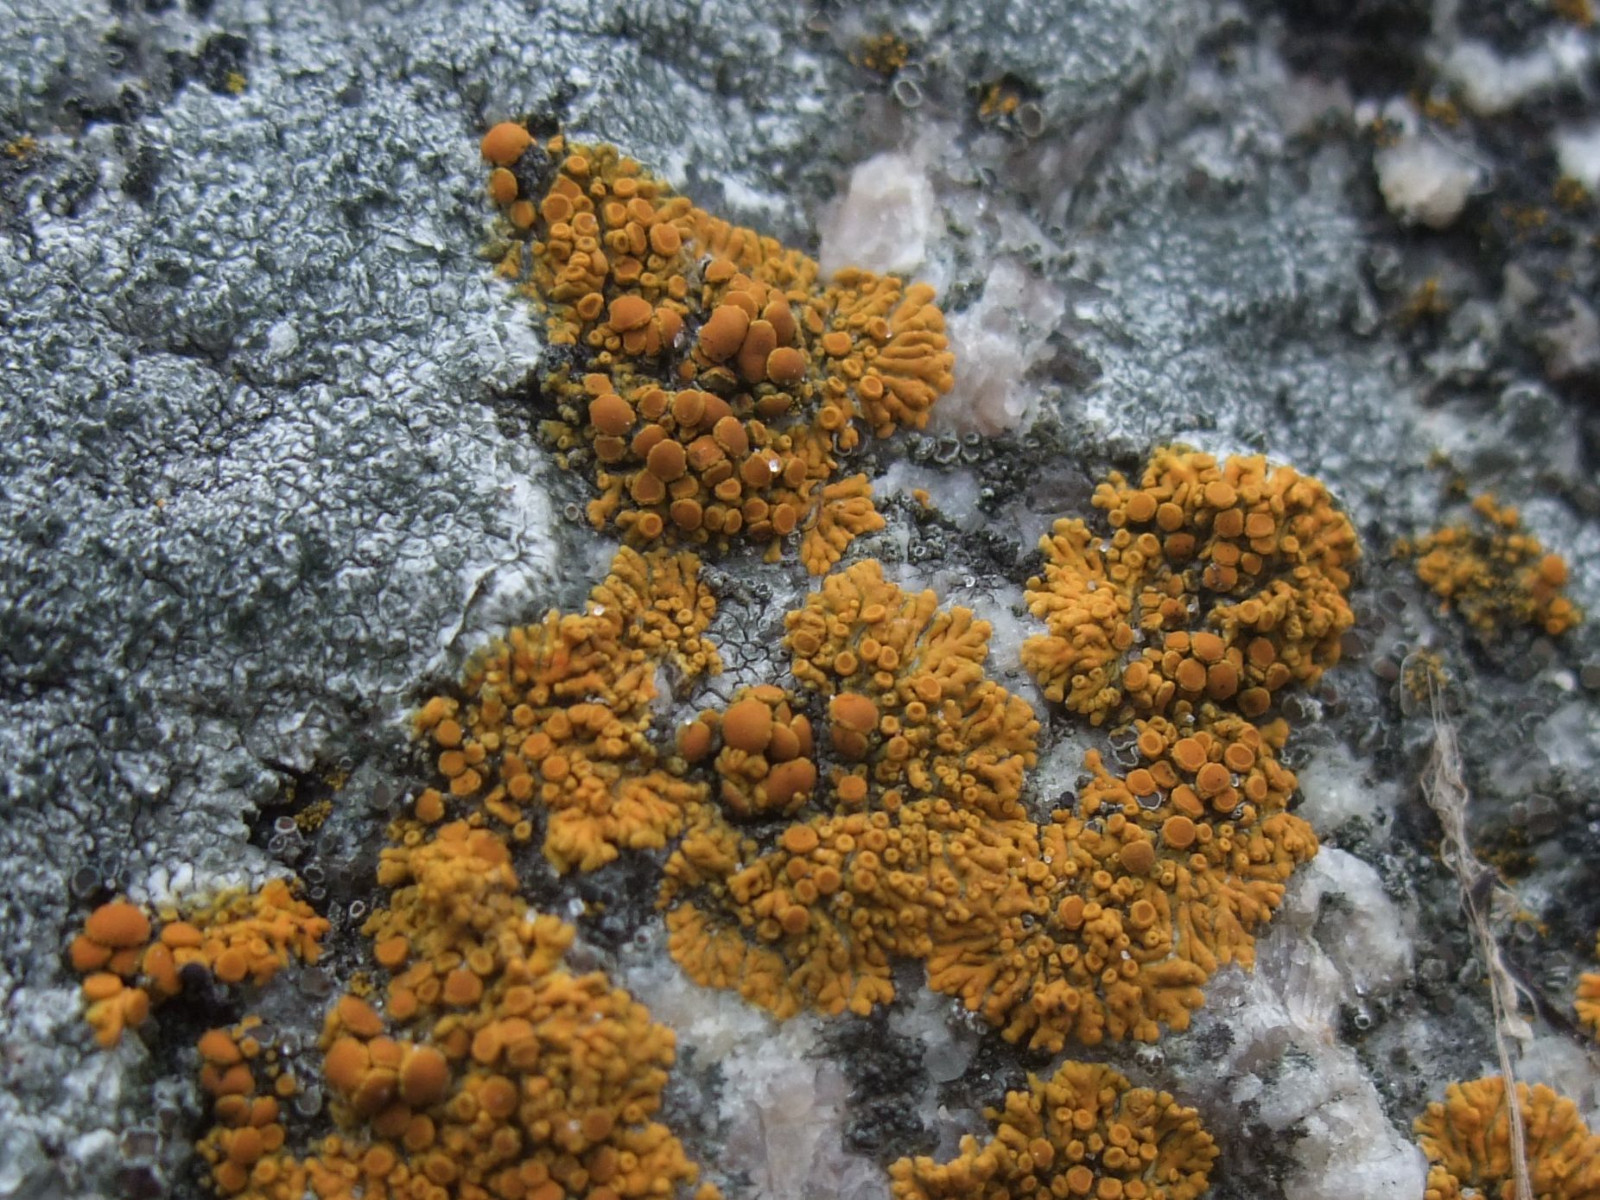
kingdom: Fungi
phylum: Ascomycota
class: Lecanoromycetes
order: Teloschistales
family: Teloschistaceae
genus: Athallia
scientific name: Athallia scopularis
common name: klippe-orangelav
